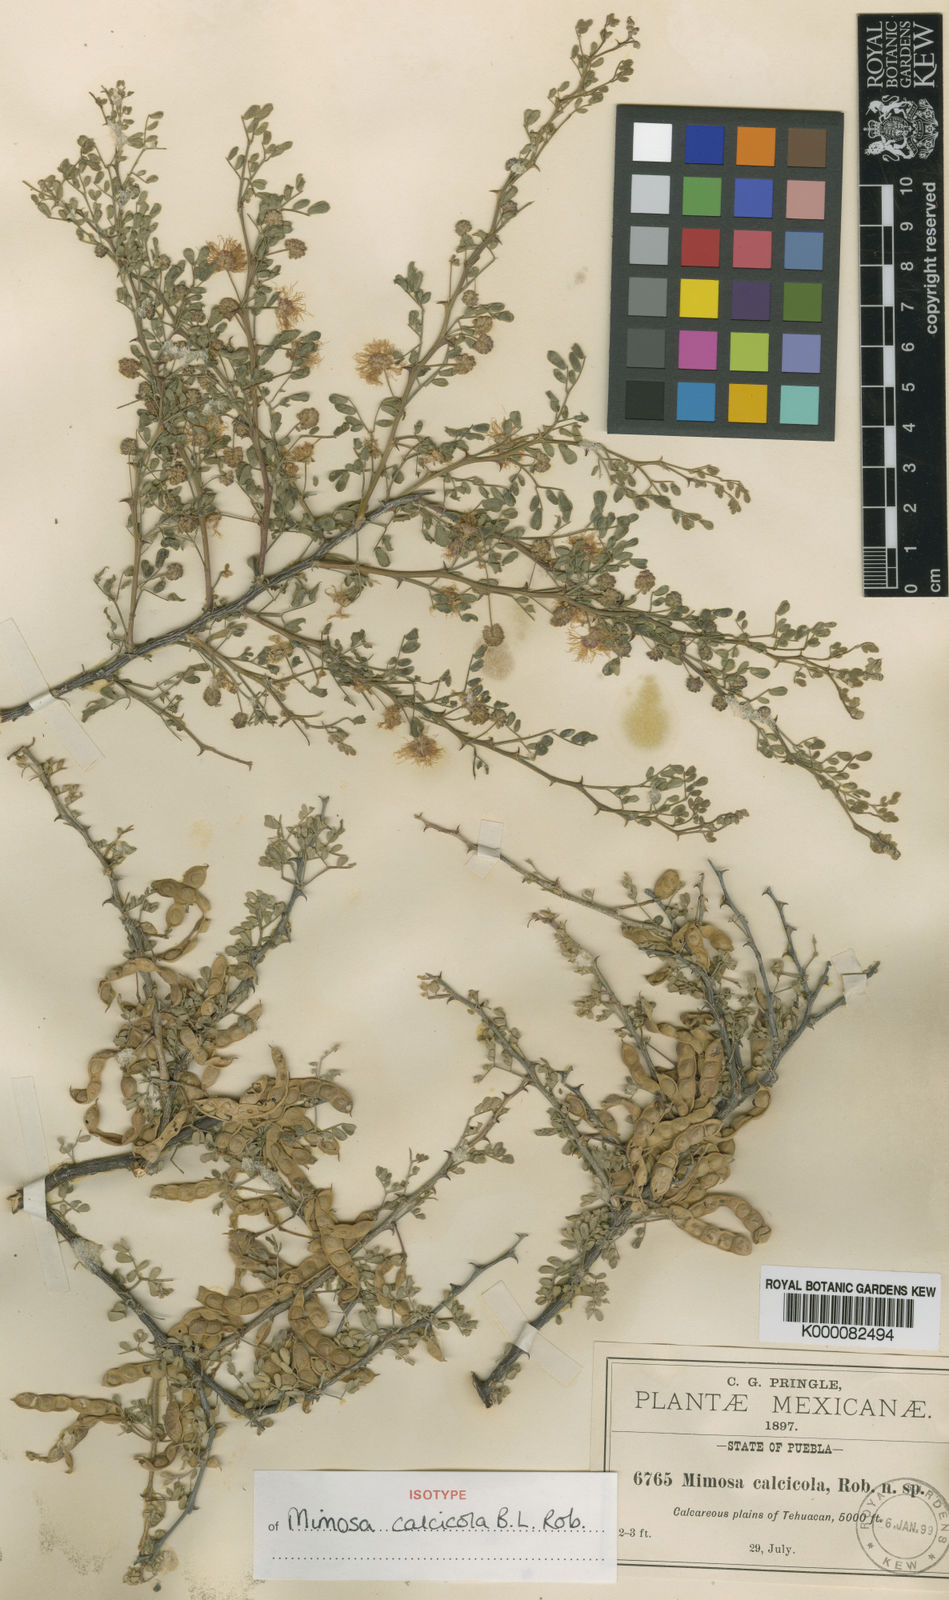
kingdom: Plantae
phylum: Tracheophyta
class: Magnoliopsida
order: Fabales
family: Fabaceae
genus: Mimosa
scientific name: Mimosa calcicola
